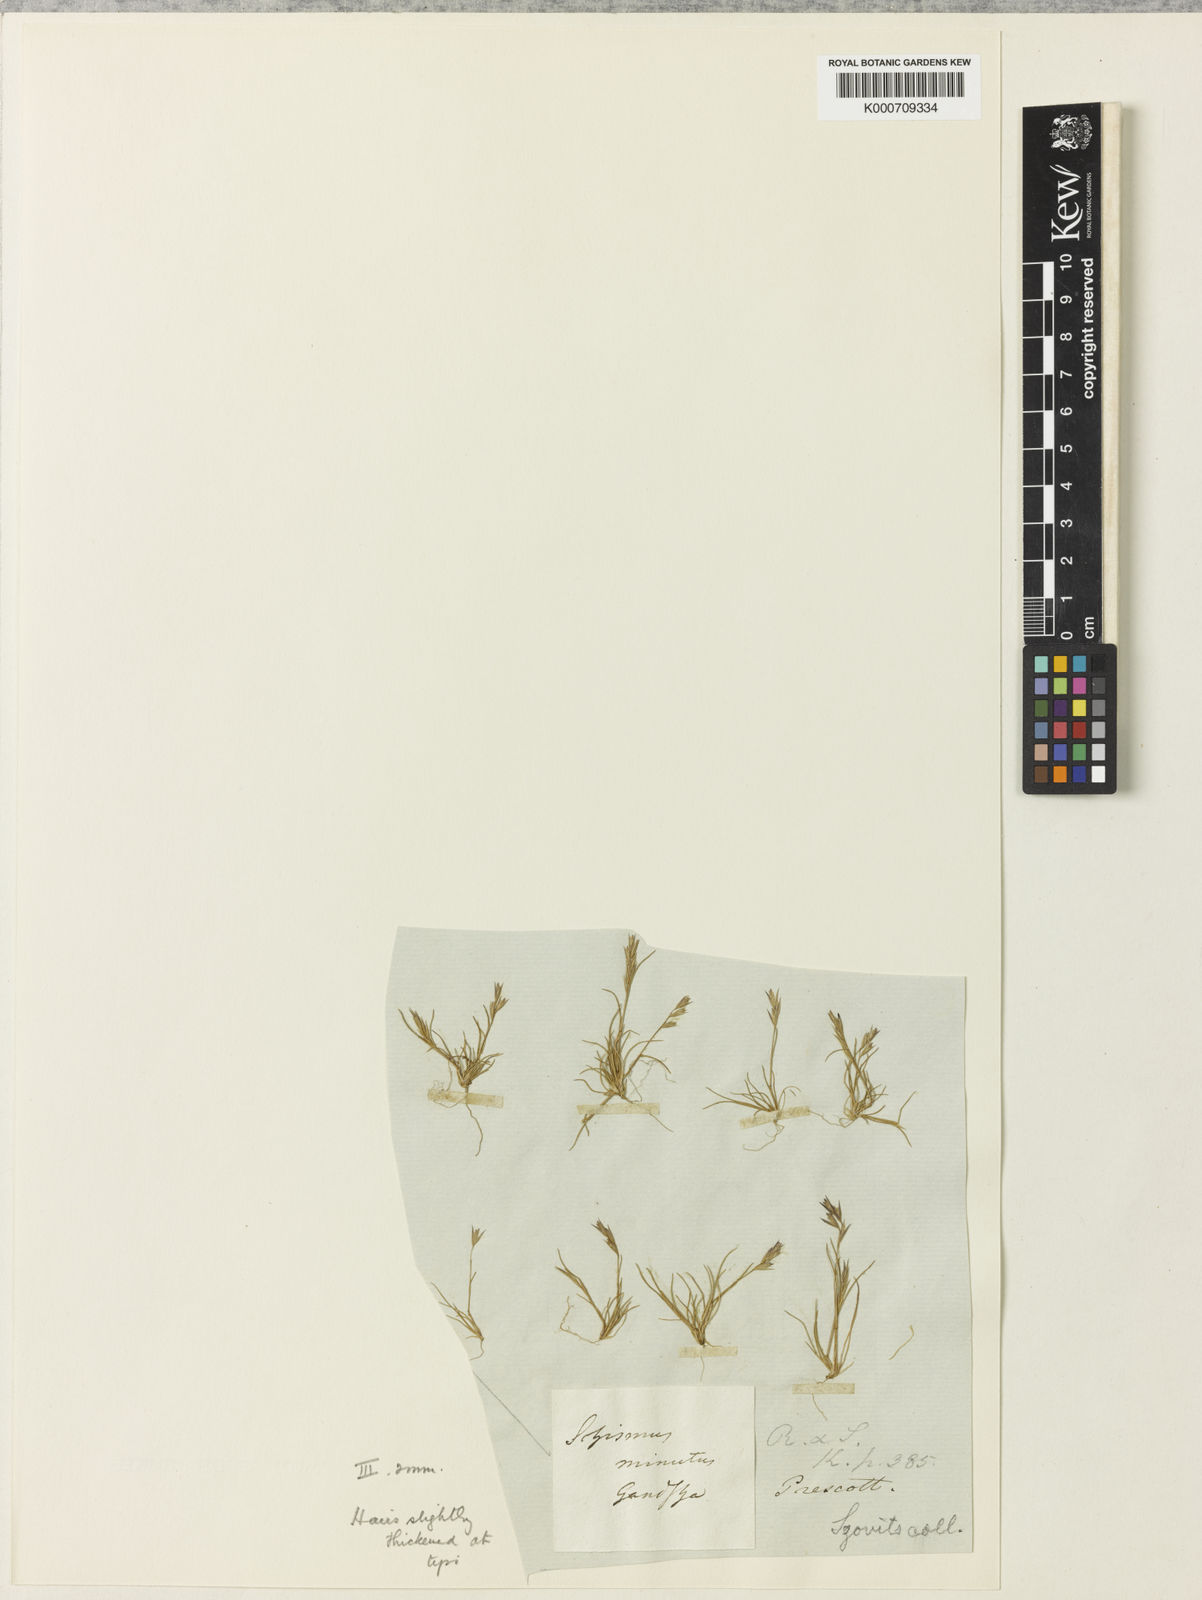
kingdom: Plantae
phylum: Tracheophyta
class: Liliopsida
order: Poales
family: Poaceae
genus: Schismus
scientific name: Schismus barbatus
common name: Kelch-grass
